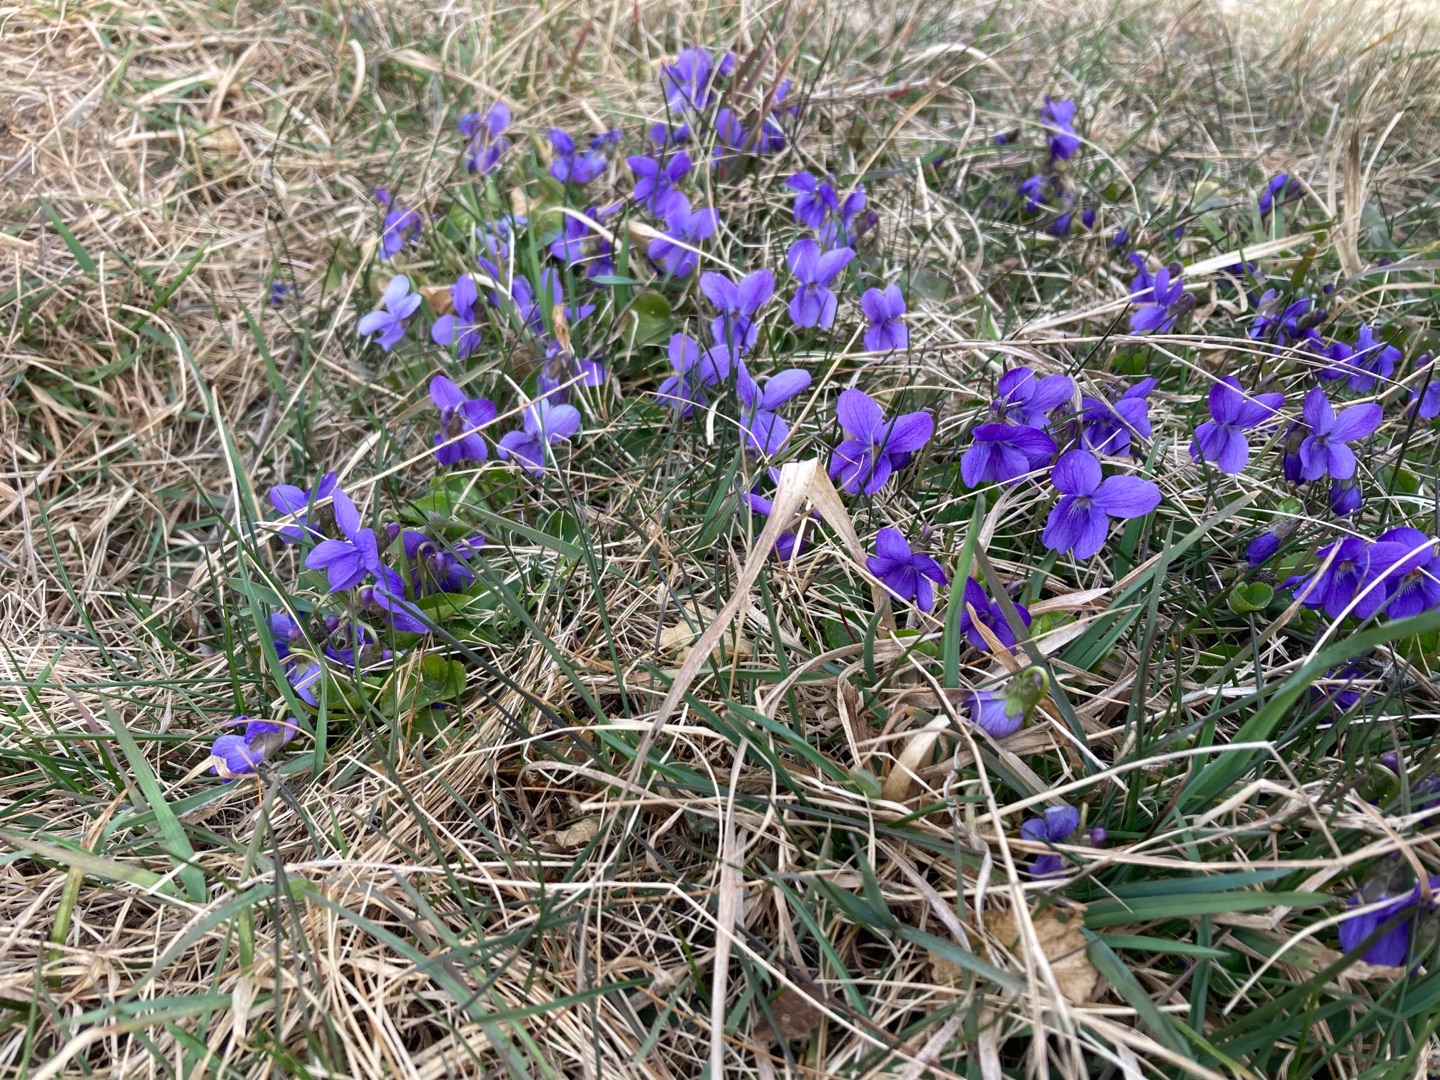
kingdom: Plantae
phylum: Tracheophyta
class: Magnoliopsida
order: Malpighiales
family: Violaceae
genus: Viola
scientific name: Viola odorata
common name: Marts-viol
